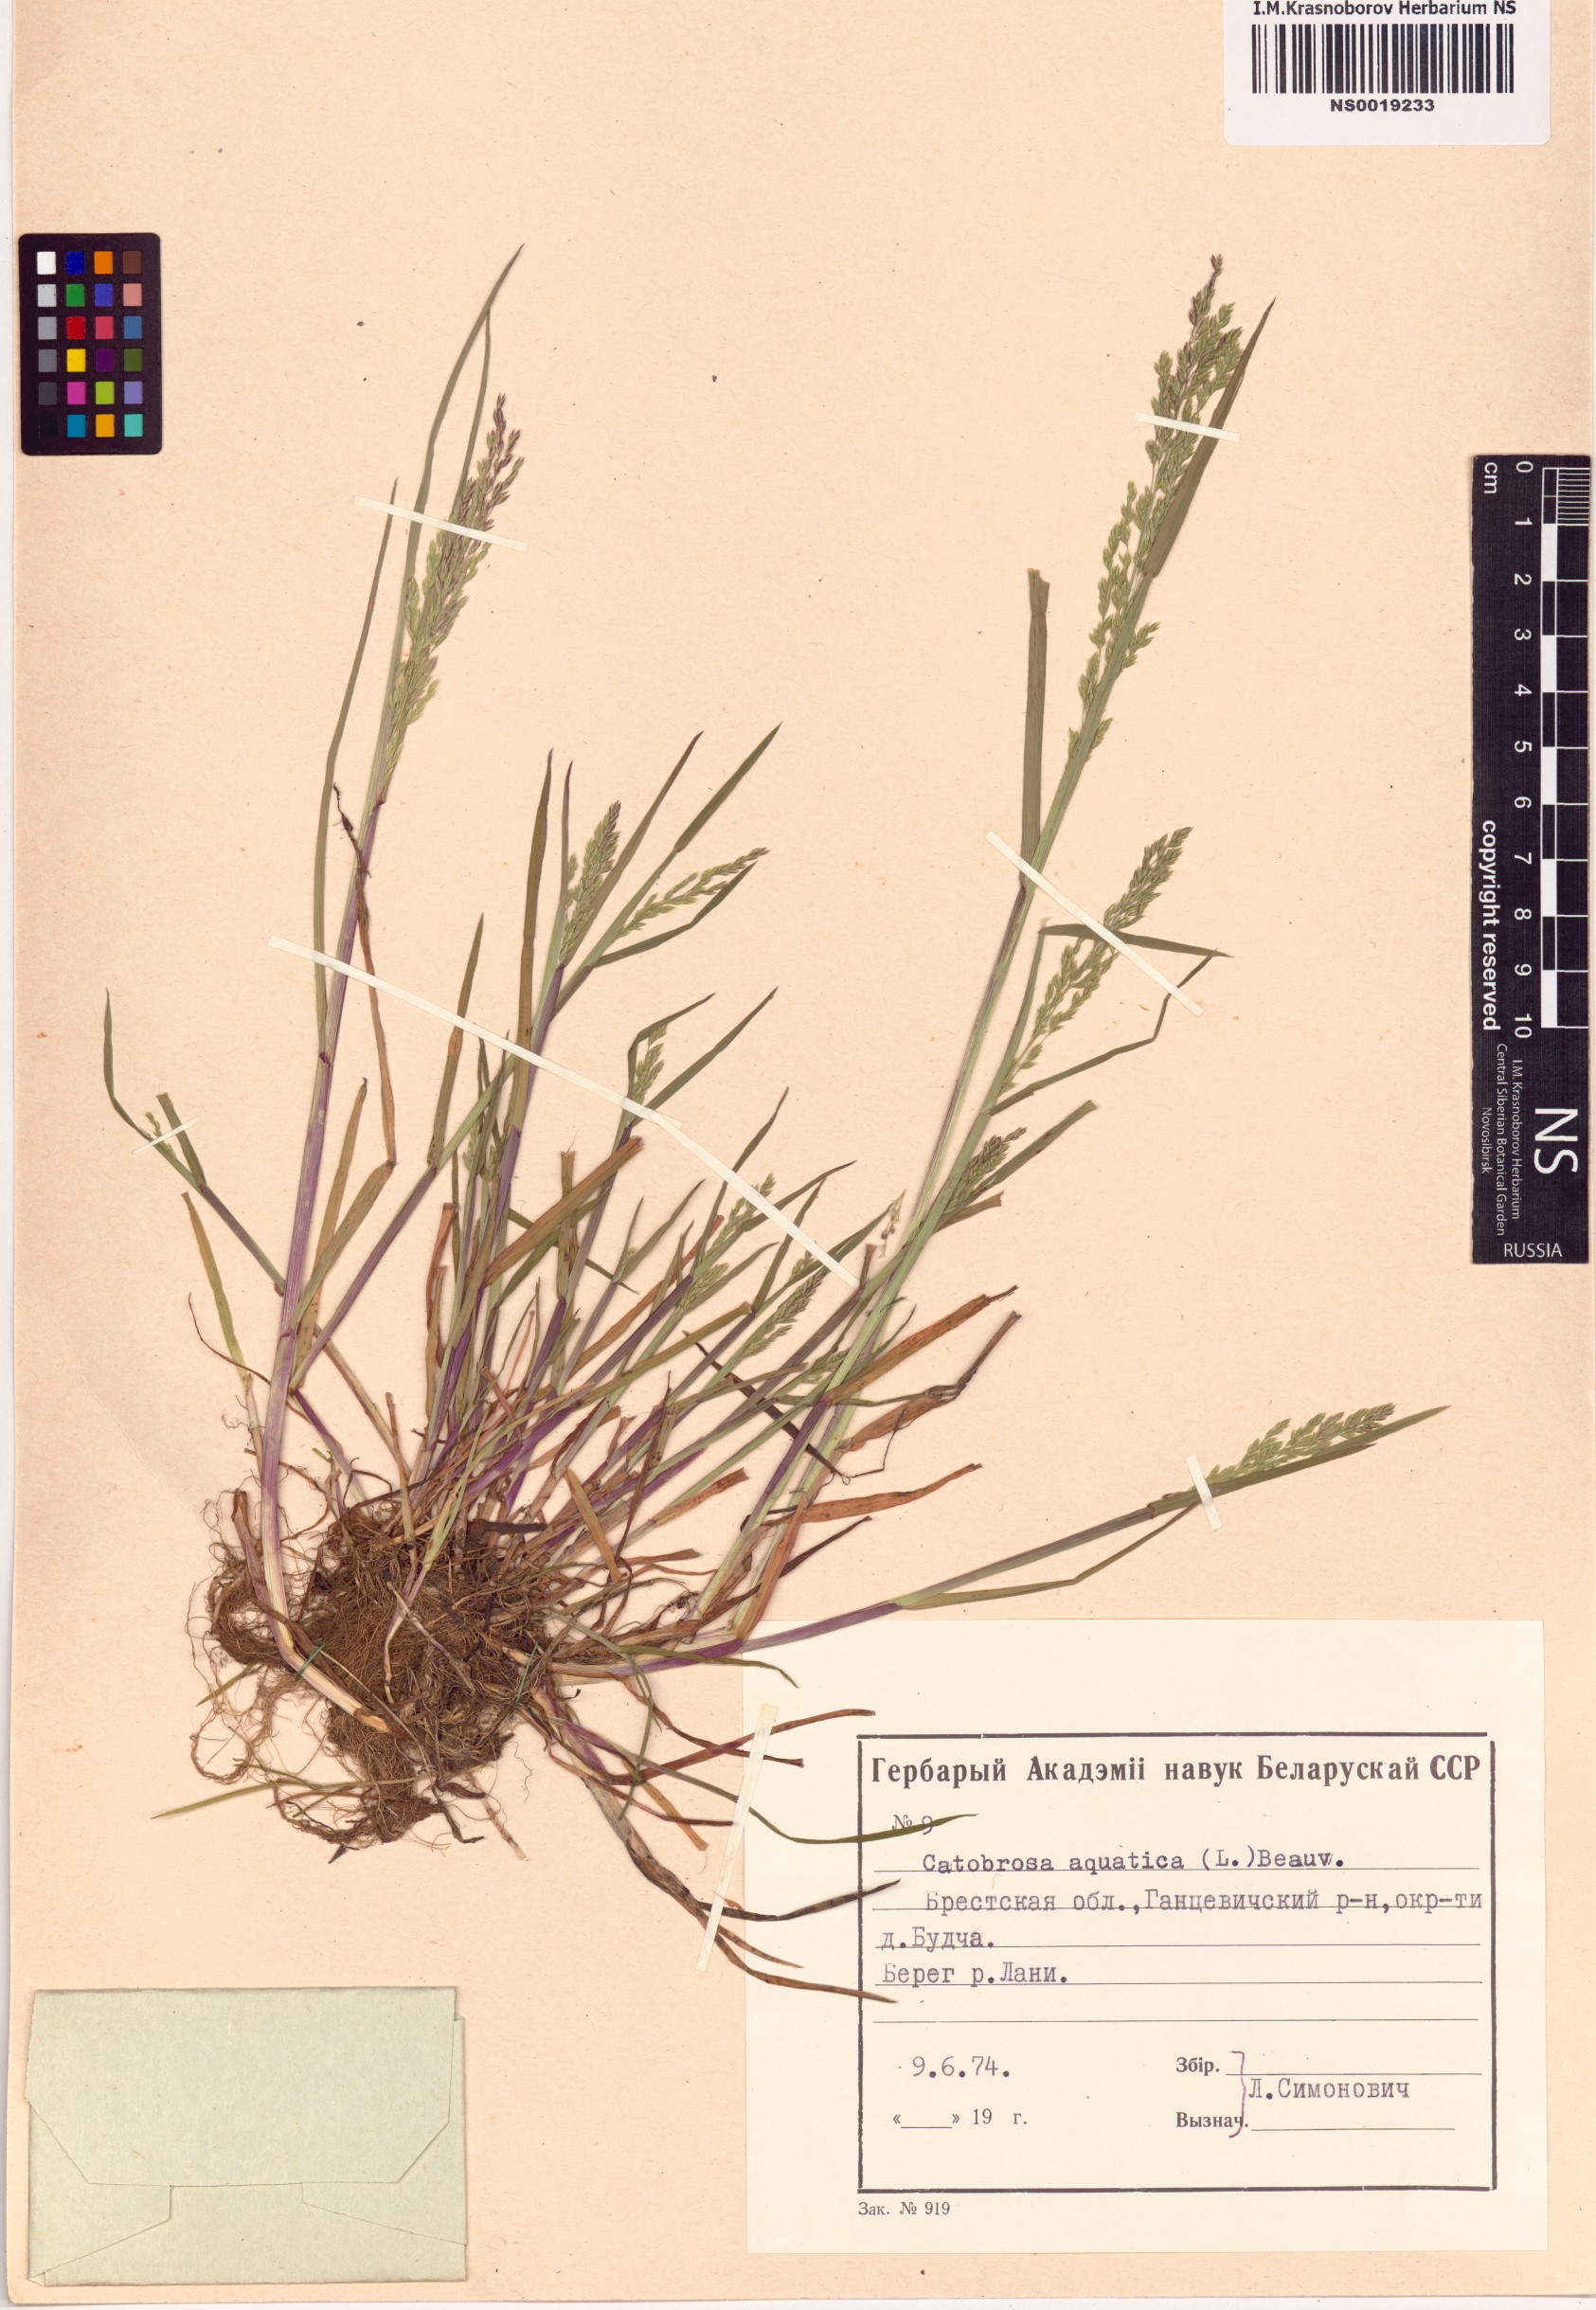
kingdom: Plantae
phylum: Tracheophyta
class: Liliopsida
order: Poales
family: Poaceae
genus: Catabrosa
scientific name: Catabrosa aquatica
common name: Whorl-grass
